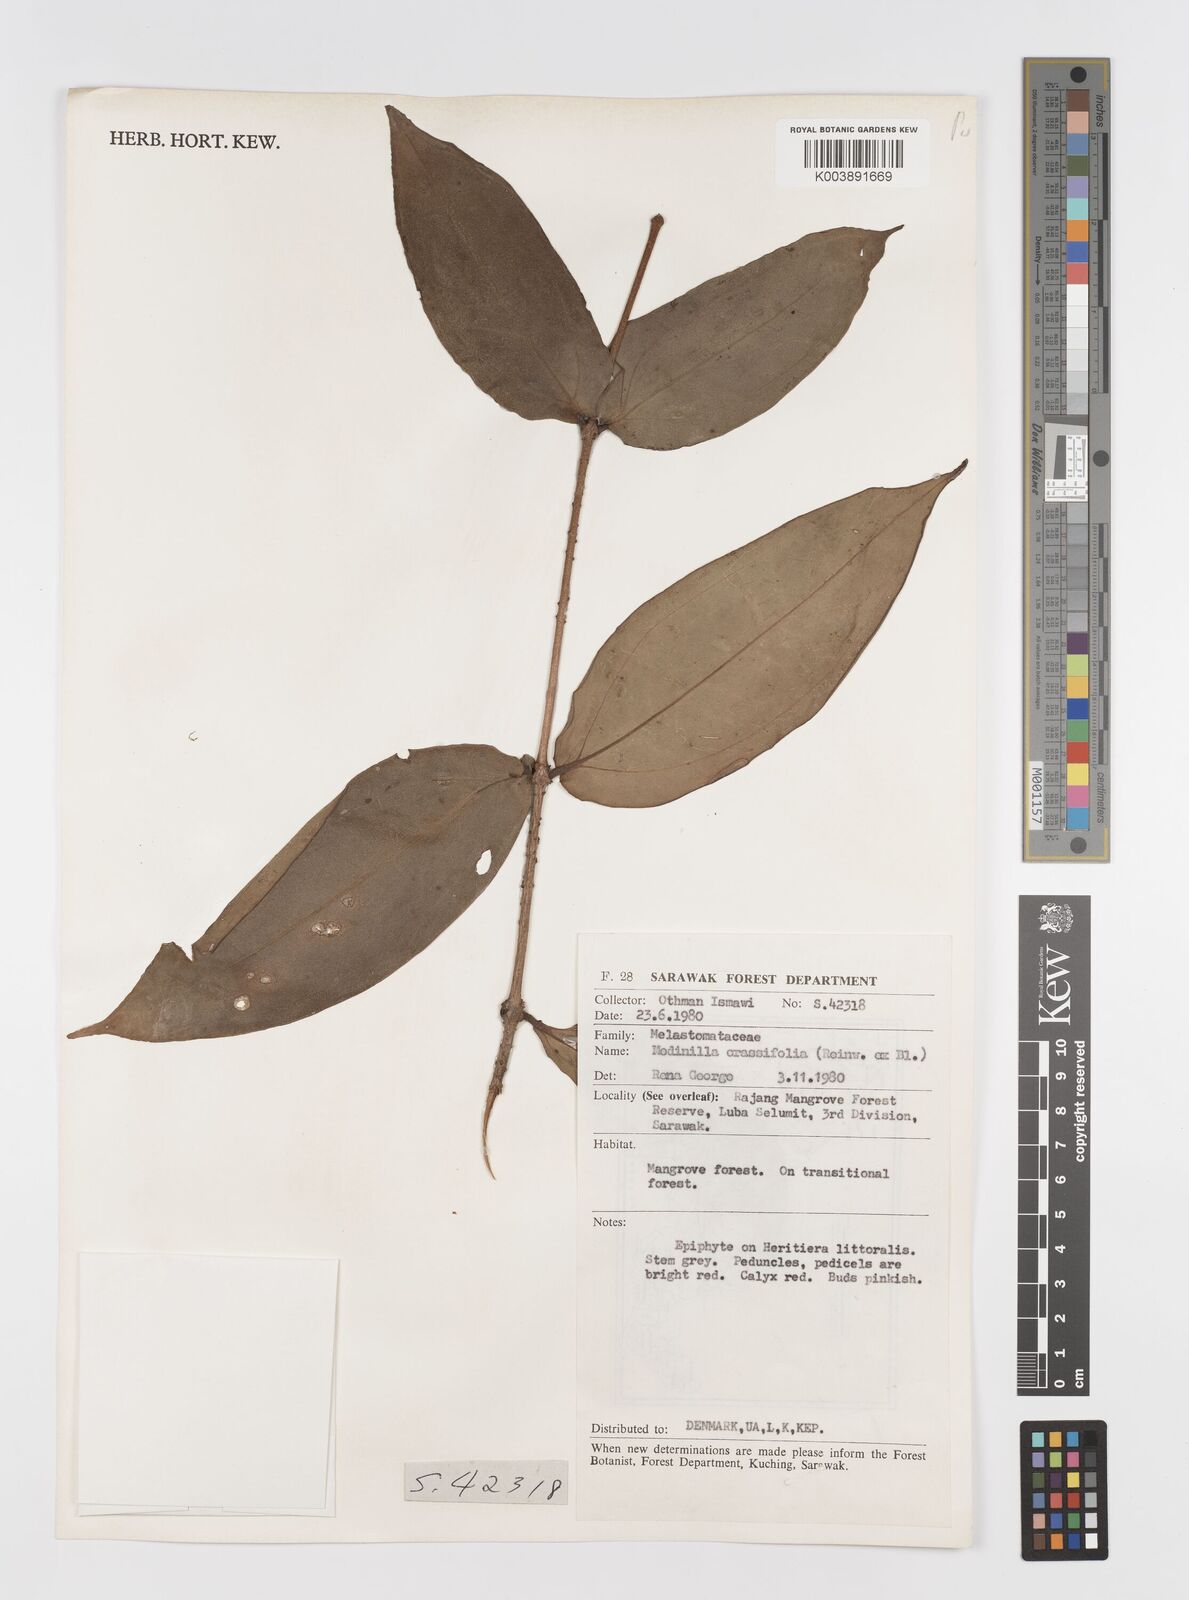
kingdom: Plantae
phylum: Tracheophyta
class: Magnoliopsida
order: Myrtales
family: Melastomataceae
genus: Medinilla
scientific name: Medinilla crassifolia
